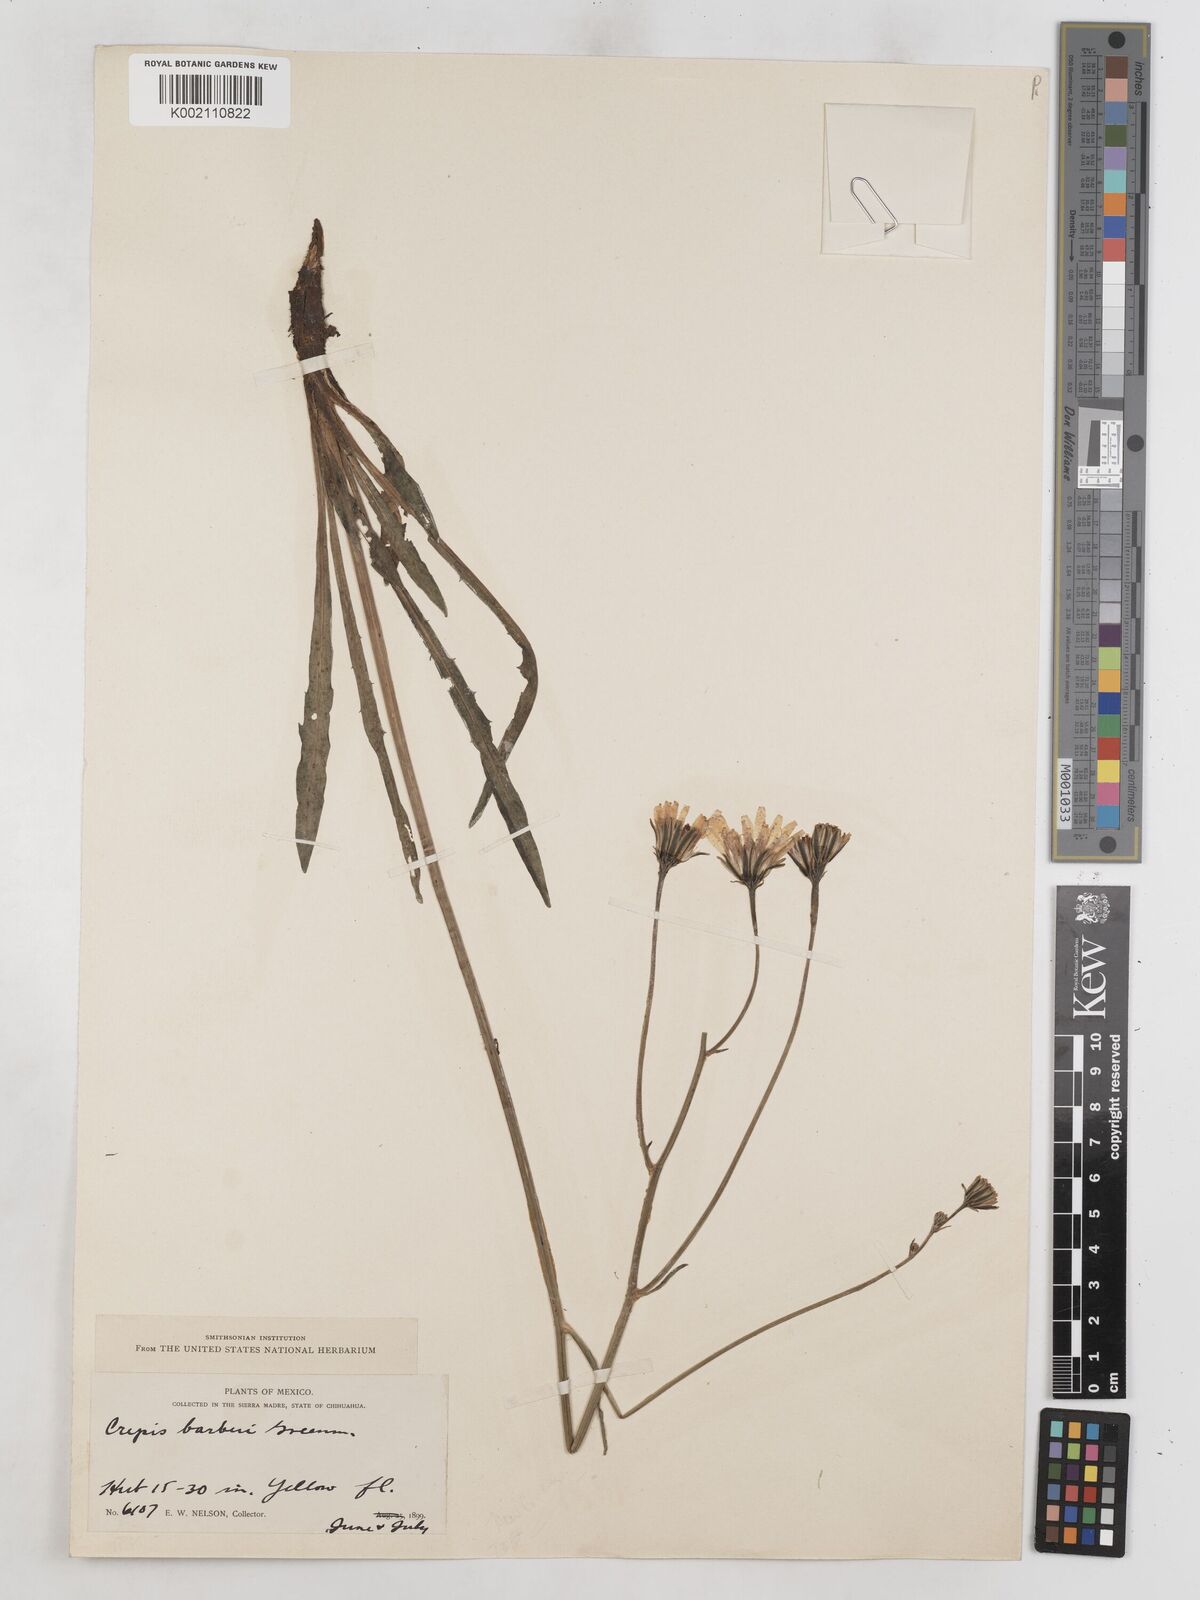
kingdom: Plantae
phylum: Tracheophyta
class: Magnoliopsida
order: Asterales
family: Asteraceae
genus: Crepis
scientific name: Crepis runcinata
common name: Dandelion hawksbeard
